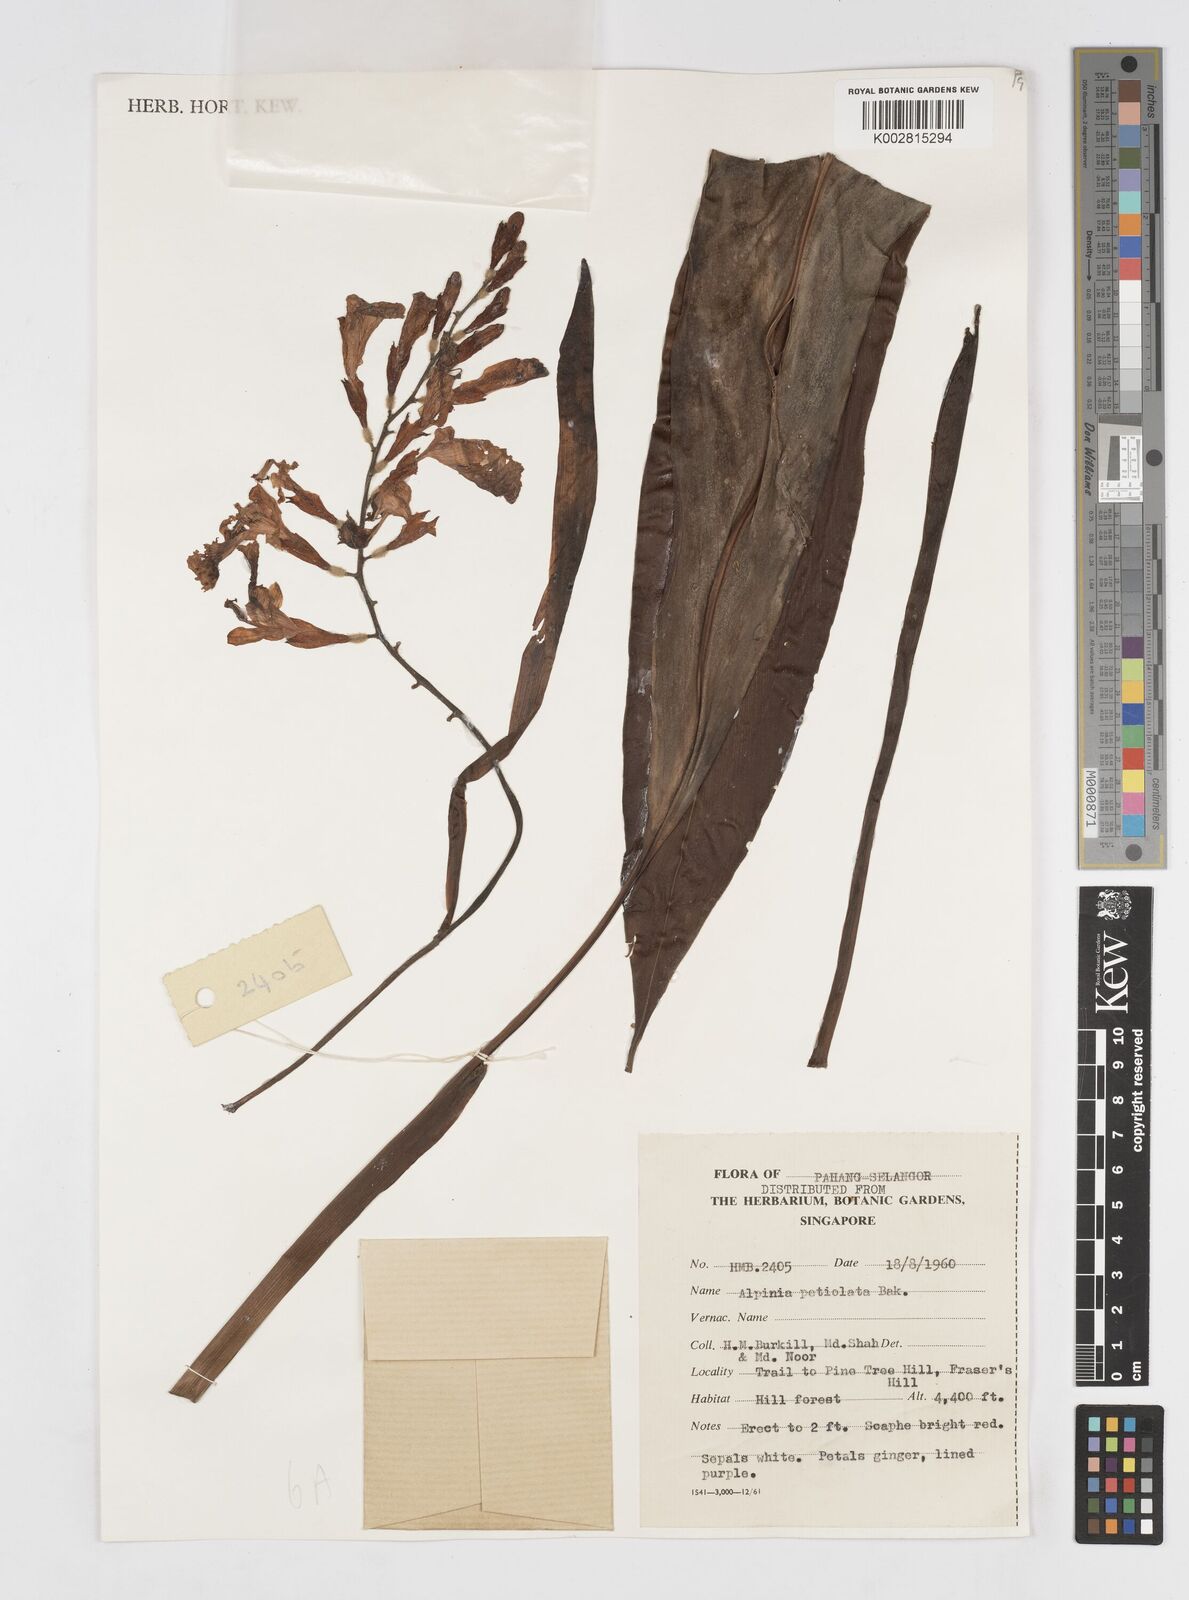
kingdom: Plantae
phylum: Tracheophyta
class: Liliopsida
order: Zingiberales
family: Zingiberaceae
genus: Alpinia
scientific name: Alpinia petiolata
